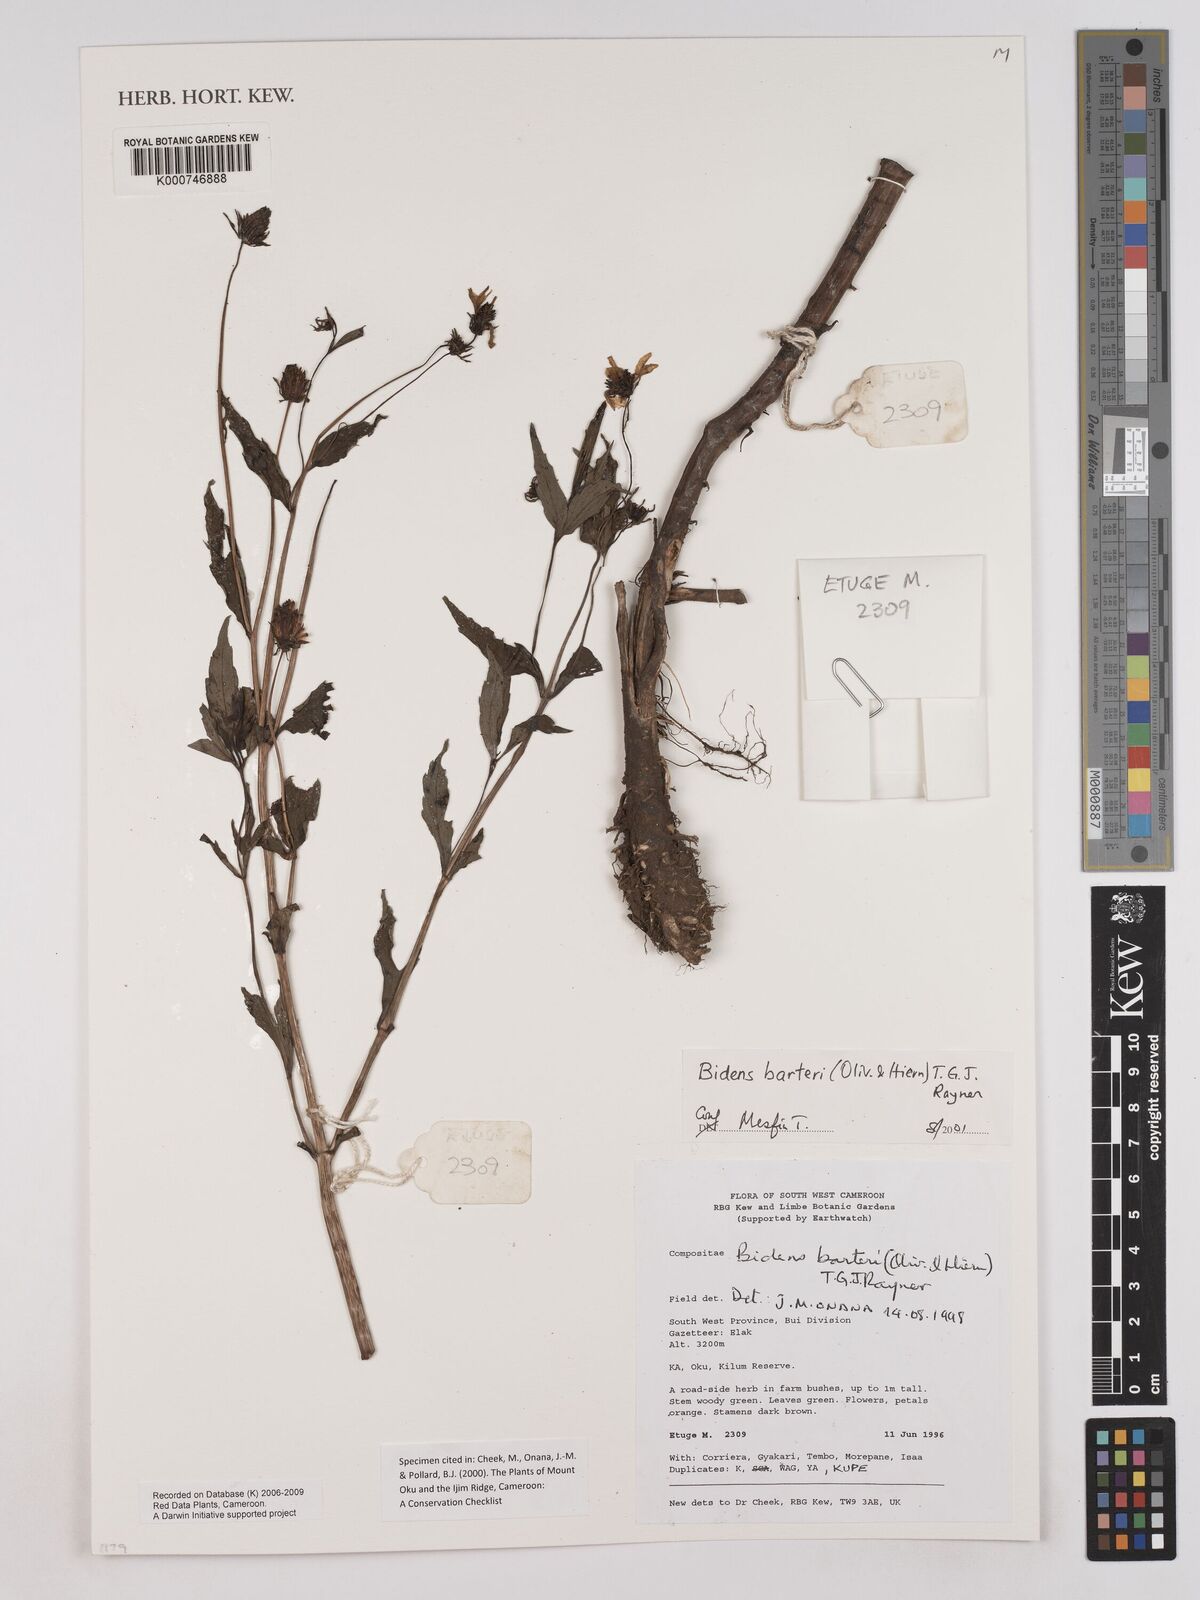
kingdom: Plantae
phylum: Tracheophyta
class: Magnoliopsida
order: Asterales
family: Asteraceae
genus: Bidens
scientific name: Bidens barteri
